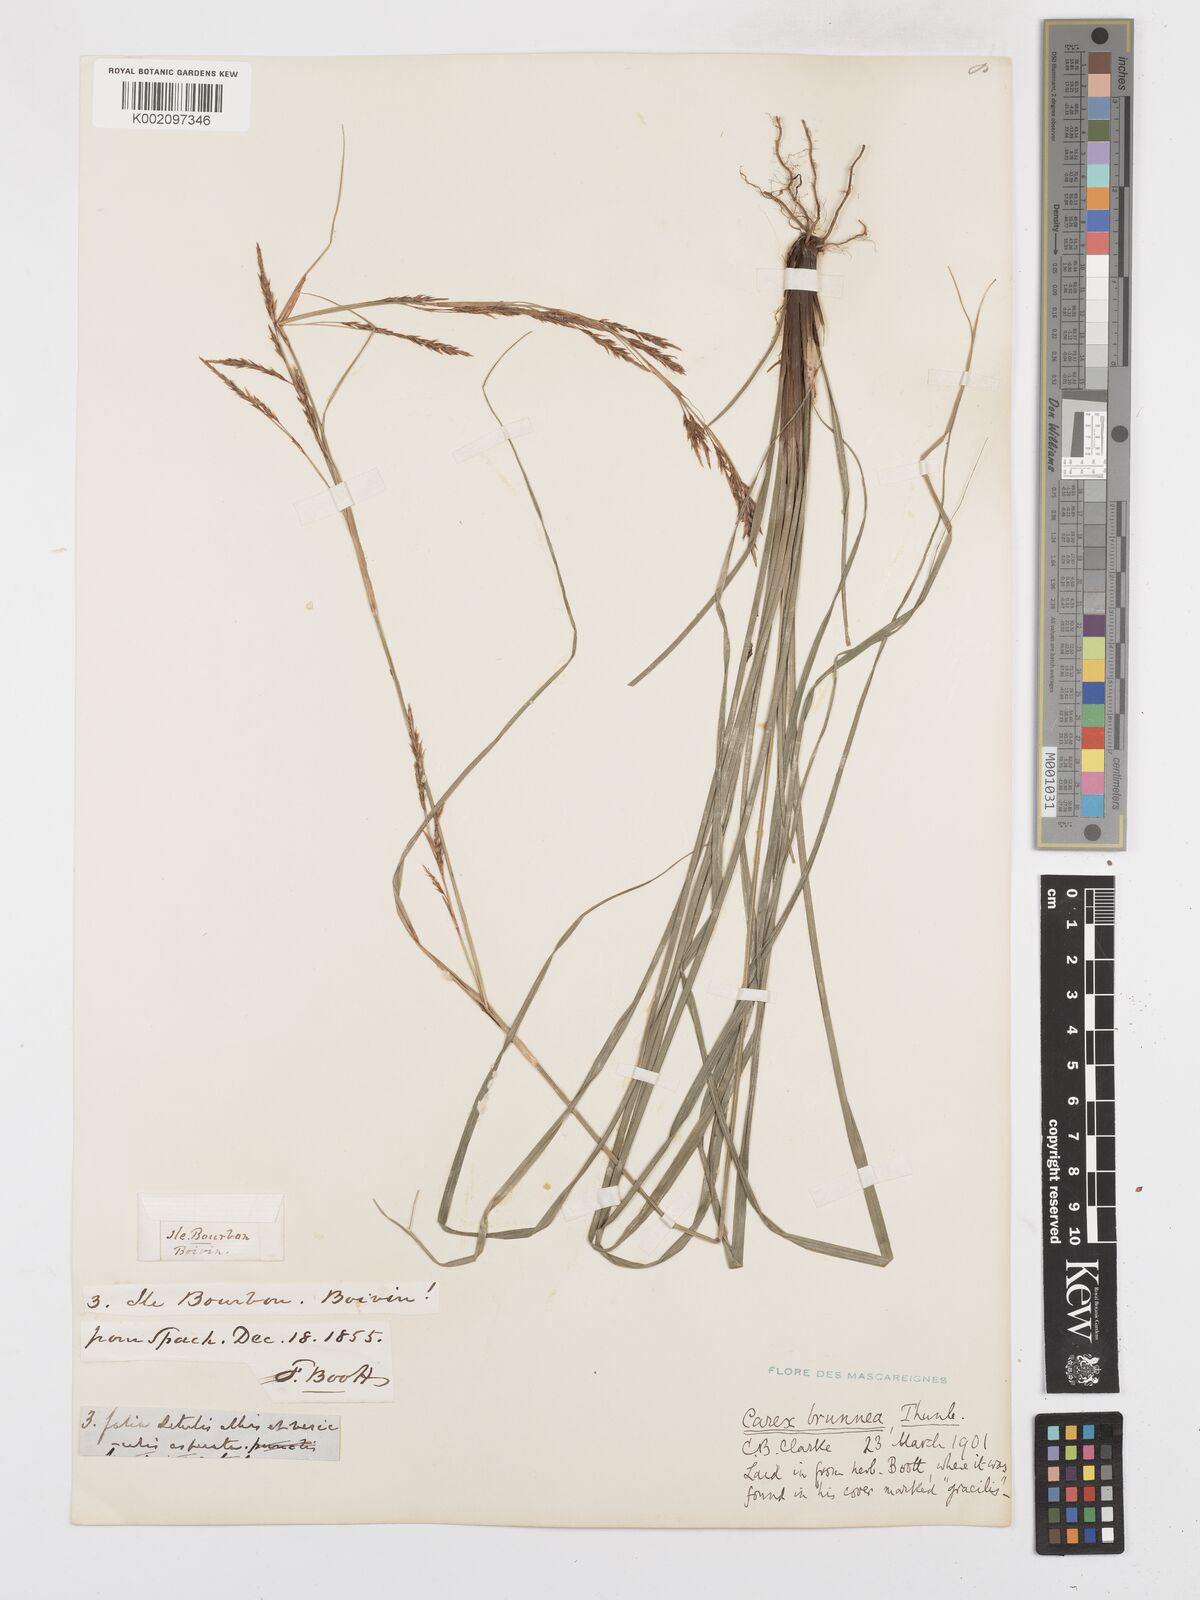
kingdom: Plantae
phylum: Tracheophyta
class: Liliopsida
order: Poales
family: Cyperaceae
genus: Carex
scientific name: Carex brunnea
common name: Greater brown sedge
